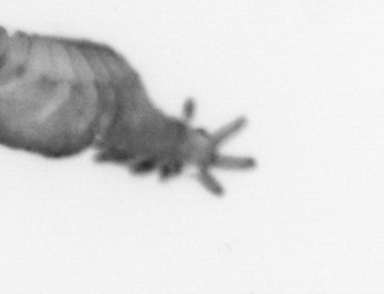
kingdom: Animalia
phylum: Annelida
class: Polychaeta
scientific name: Polychaeta
